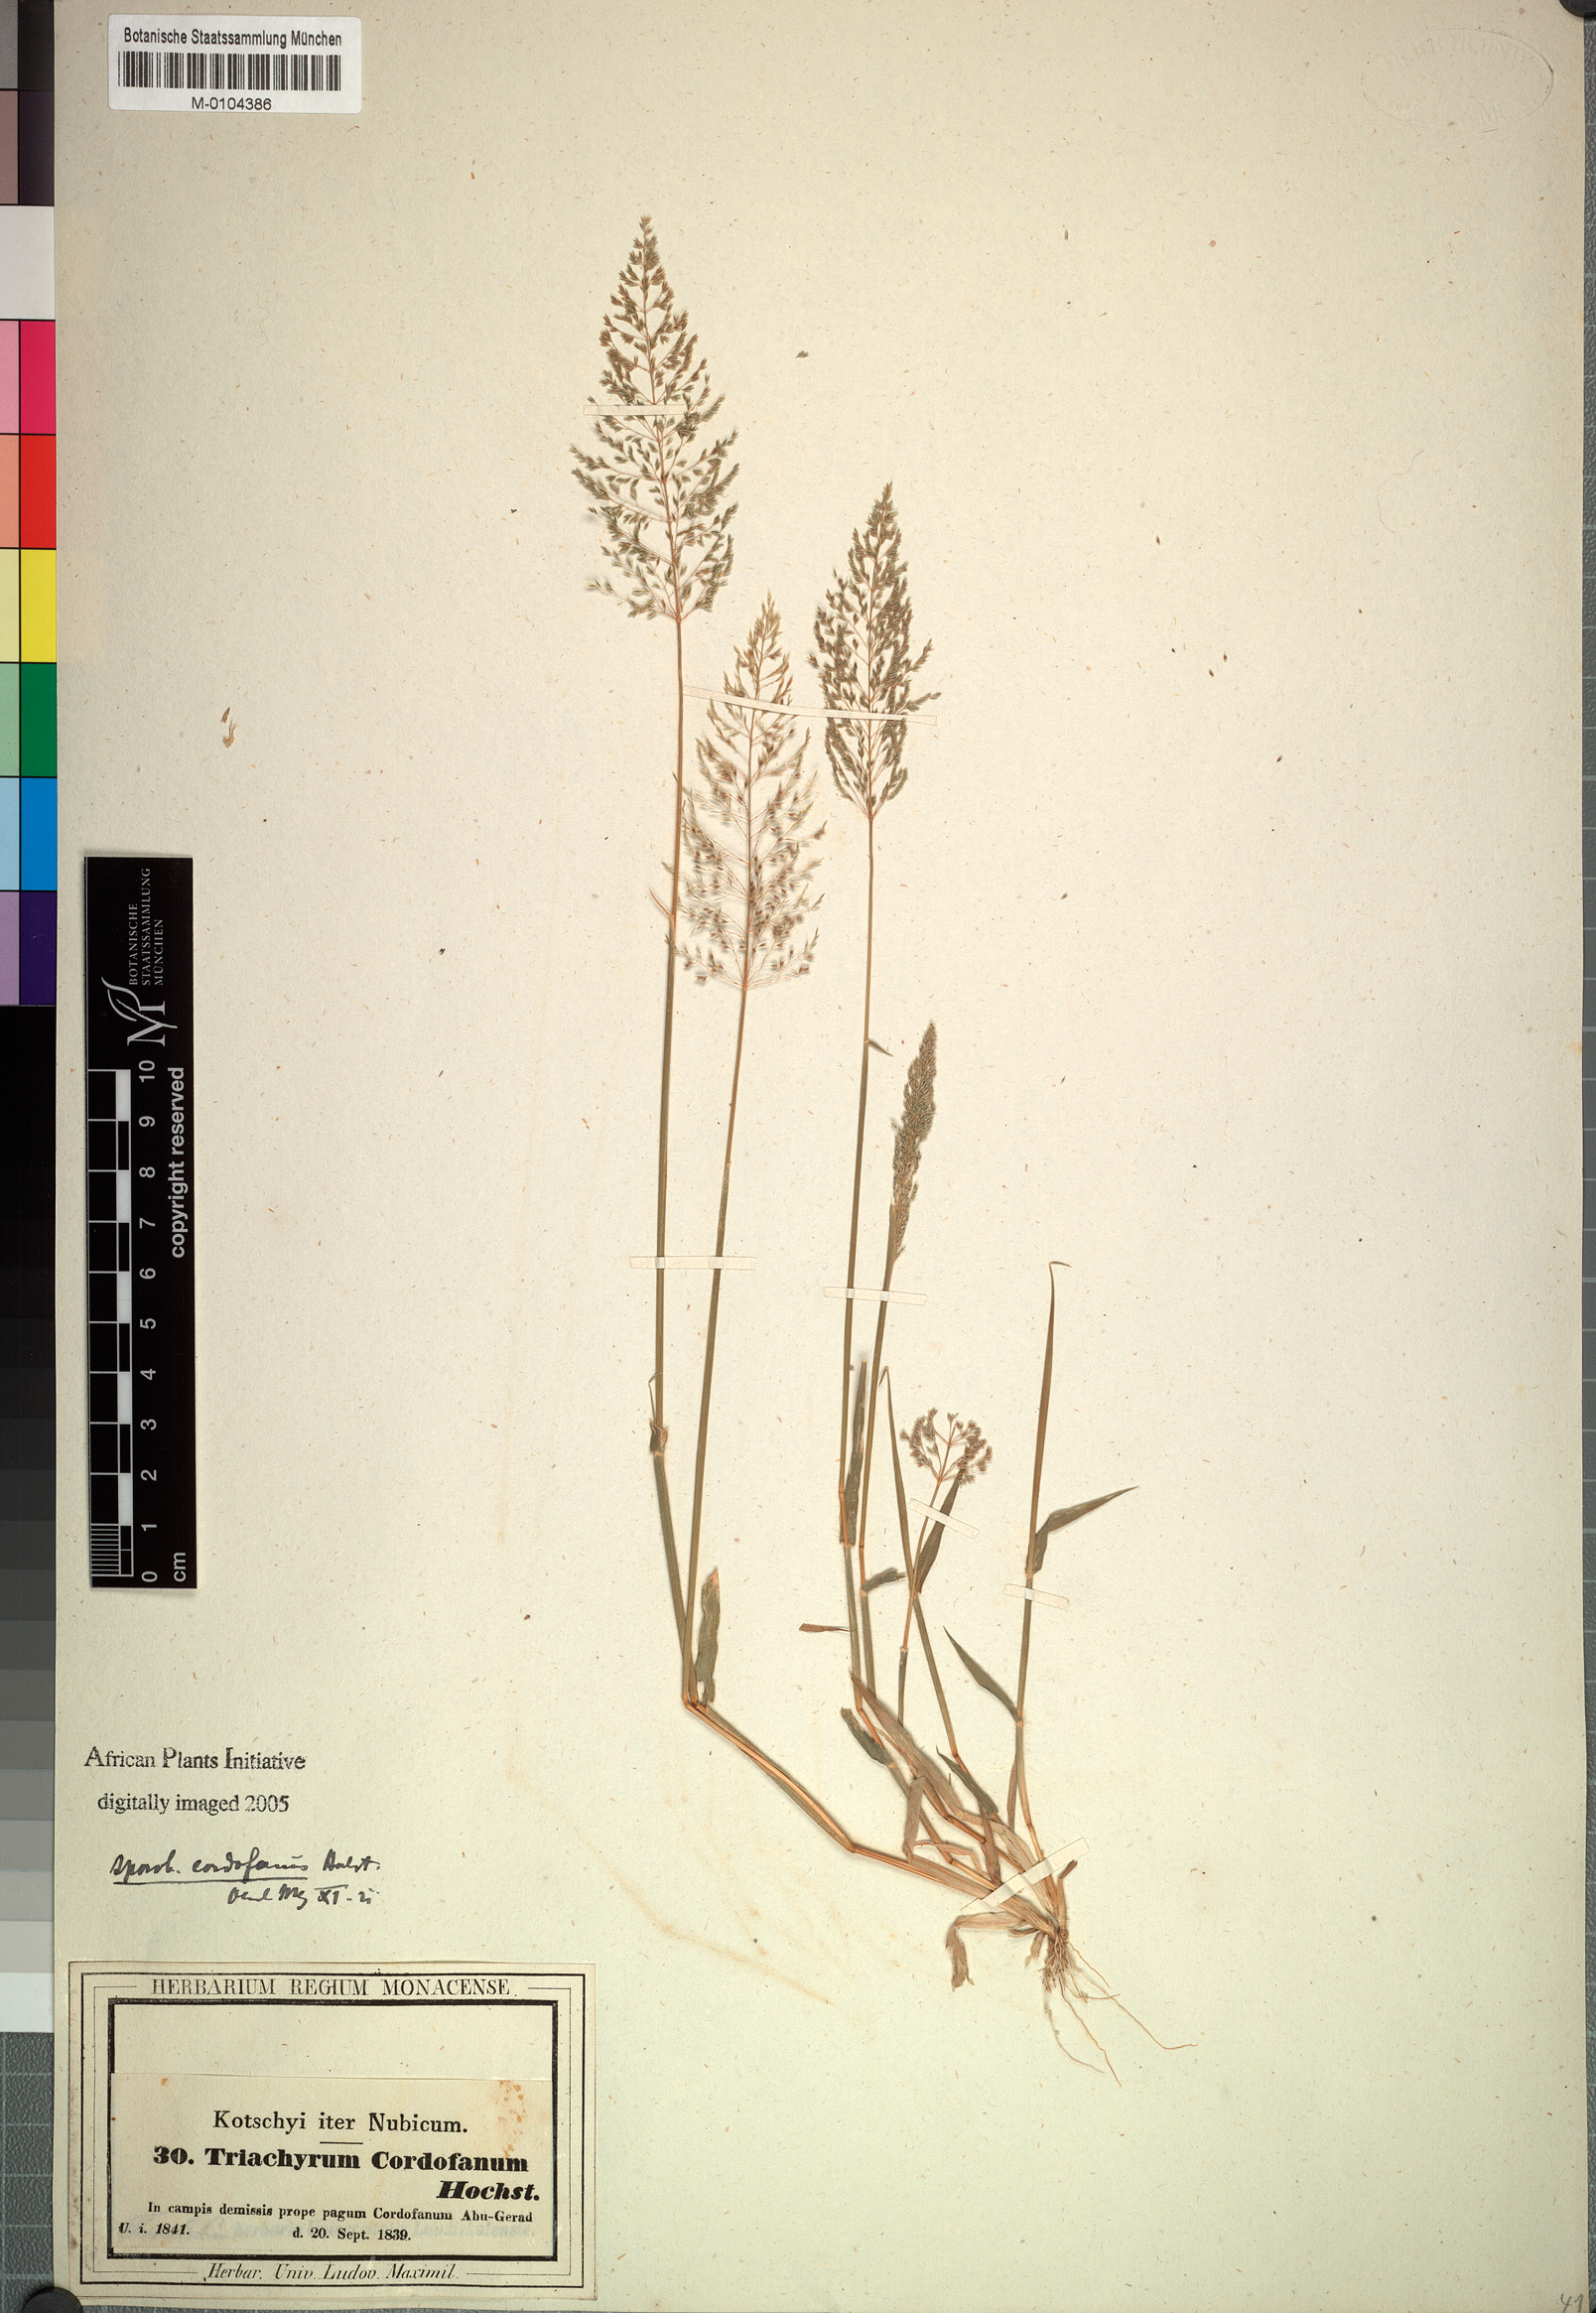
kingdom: Plantae
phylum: Tracheophyta
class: Liliopsida
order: Poales
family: Poaceae
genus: Sporobolus
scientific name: Sporobolus cordofanus
